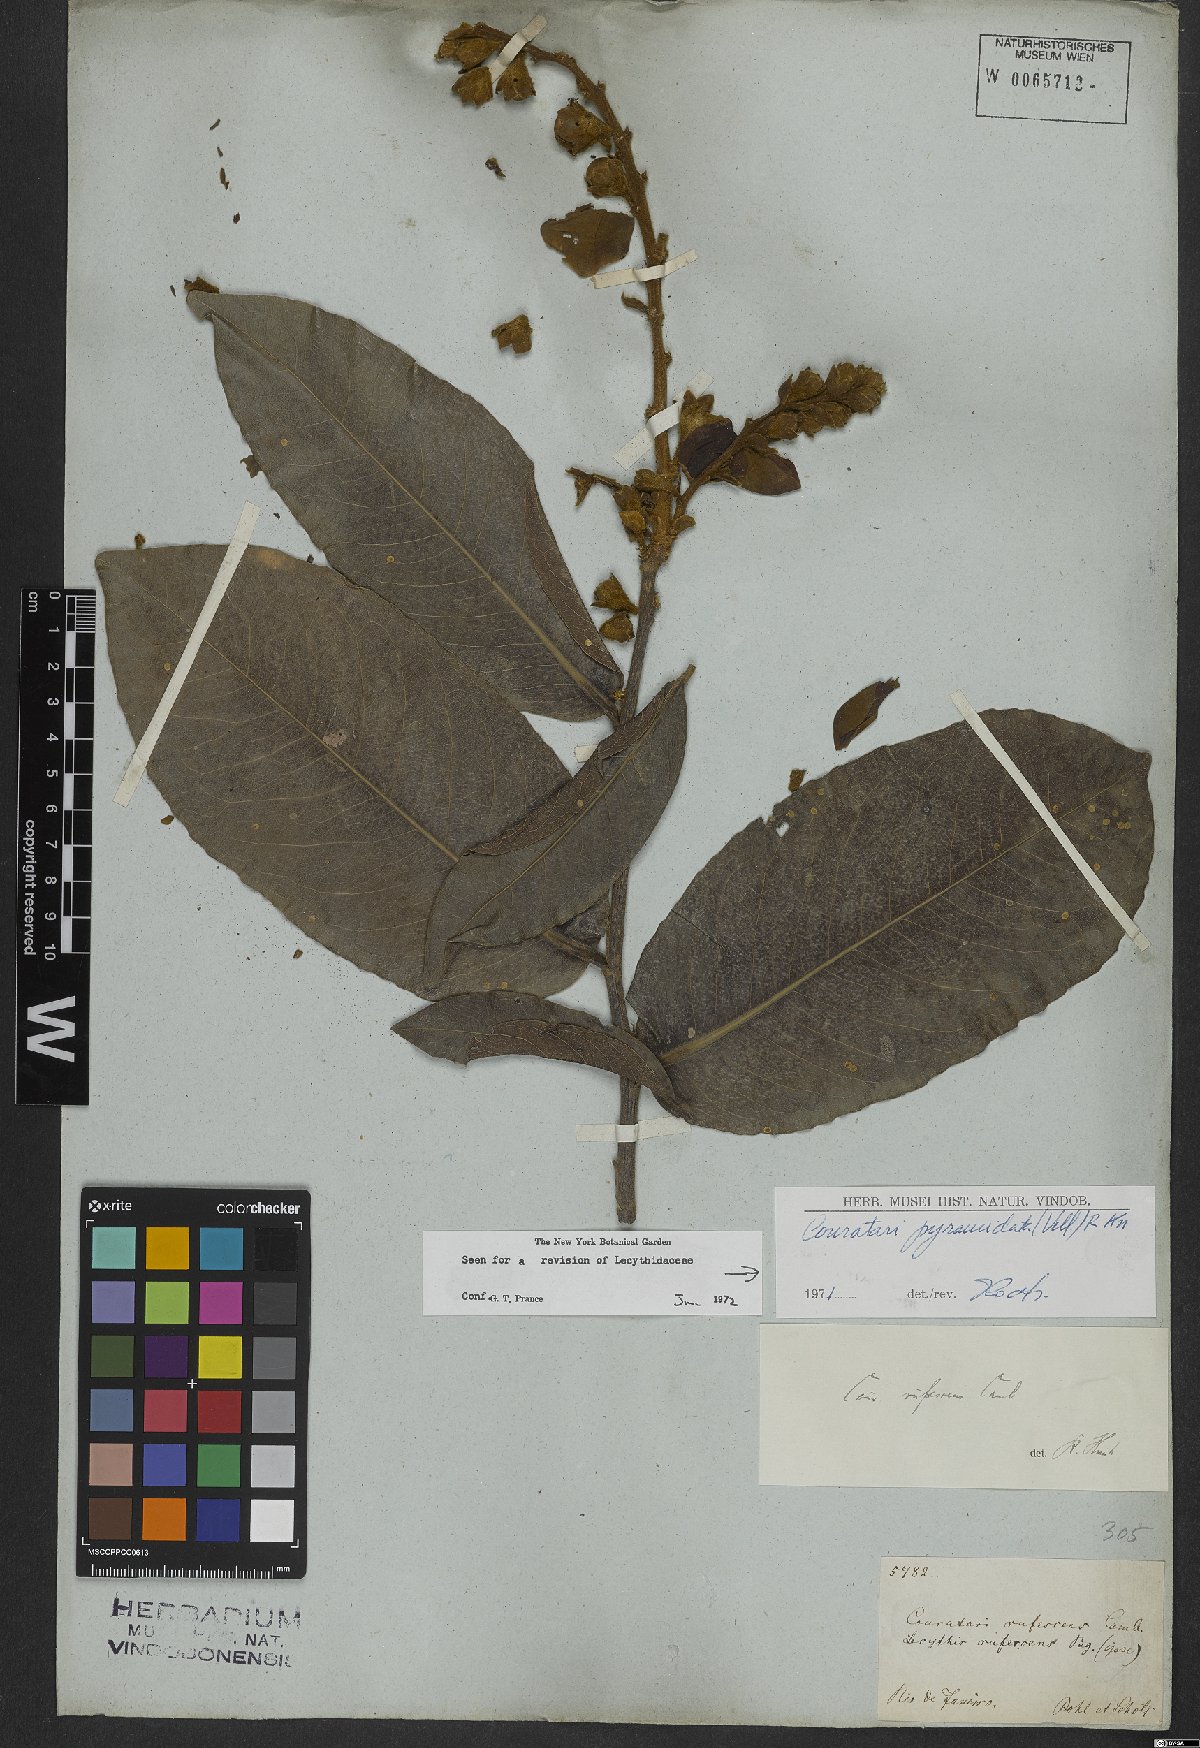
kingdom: Plantae
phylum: Tracheophyta
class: Magnoliopsida
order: Ericales
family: Lecythidaceae
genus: Couratari
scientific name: Couratari pyramidata
